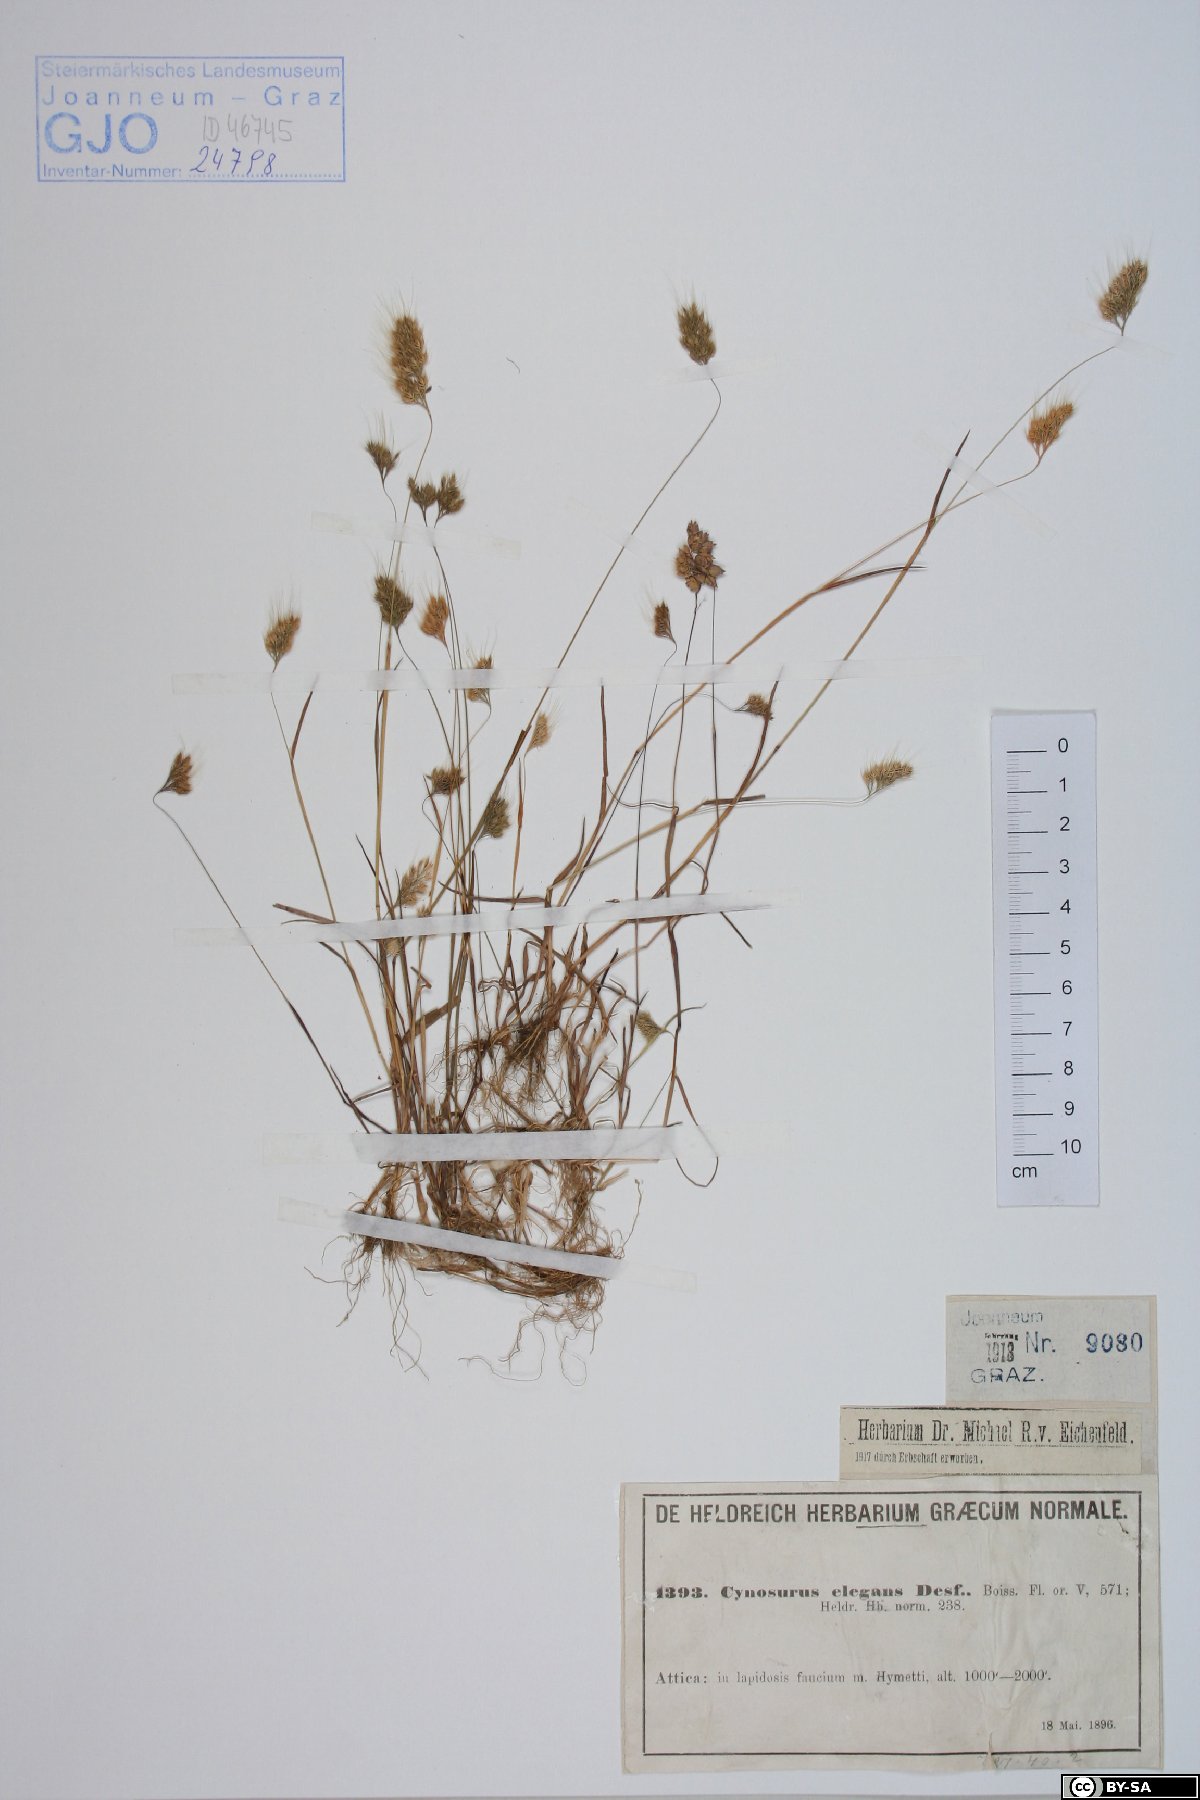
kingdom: Plantae
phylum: Tracheophyta
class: Liliopsida
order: Poales
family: Poaceae
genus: Cynosurus
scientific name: Cynosurus elegans
